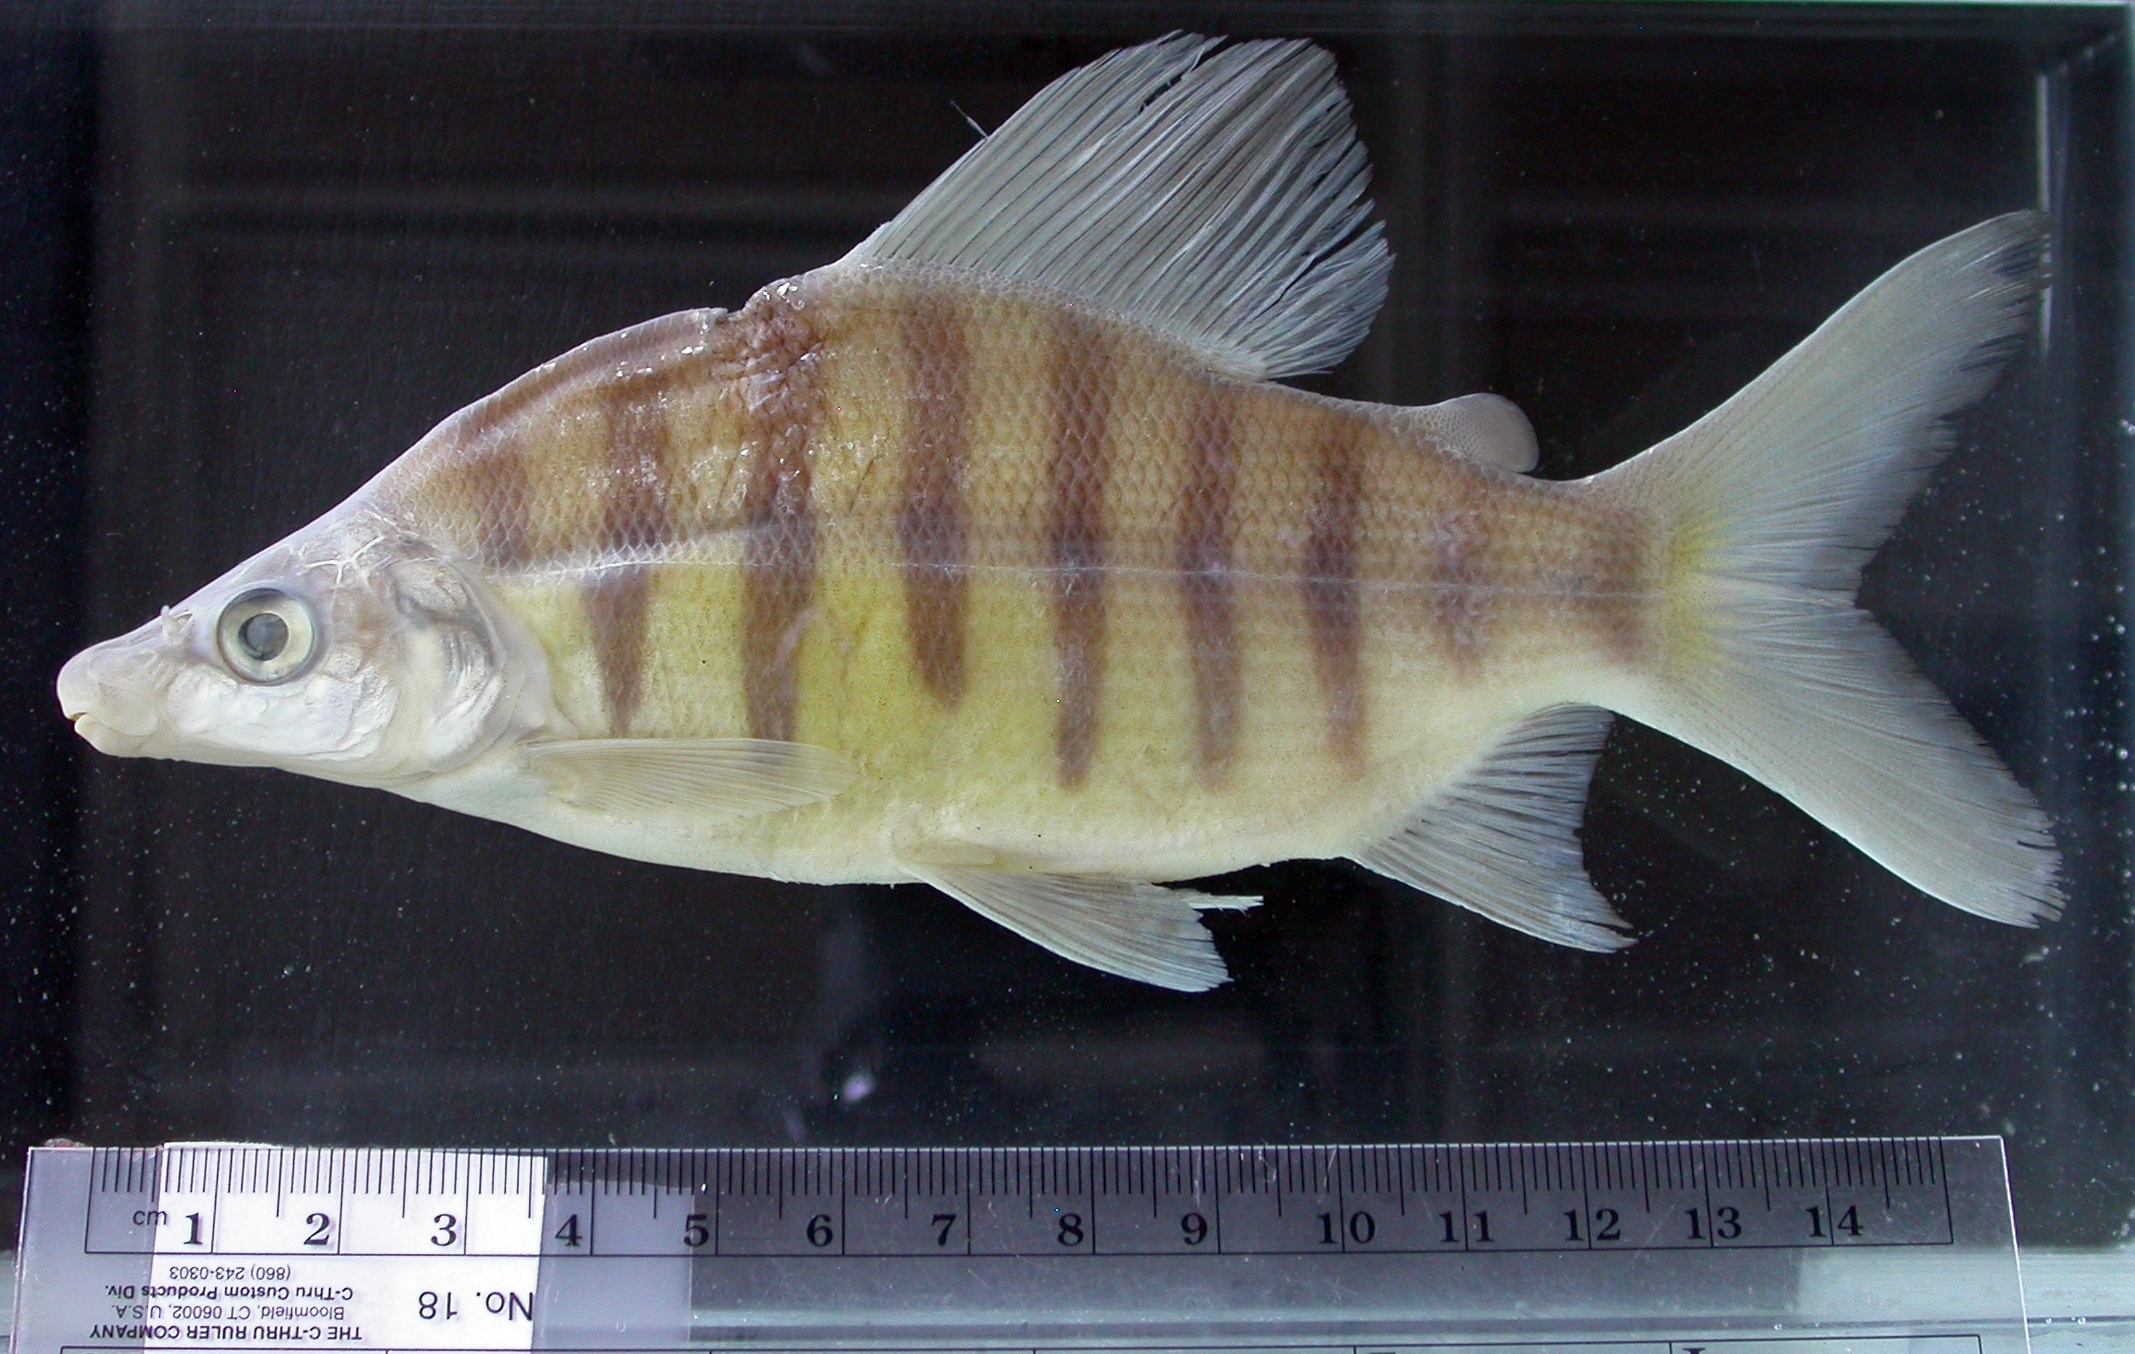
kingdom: Animalia
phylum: Chordata
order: Characiformes
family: Distichodontidae
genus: Distichodus
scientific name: Distichodus mossambicus
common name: Nkupe
